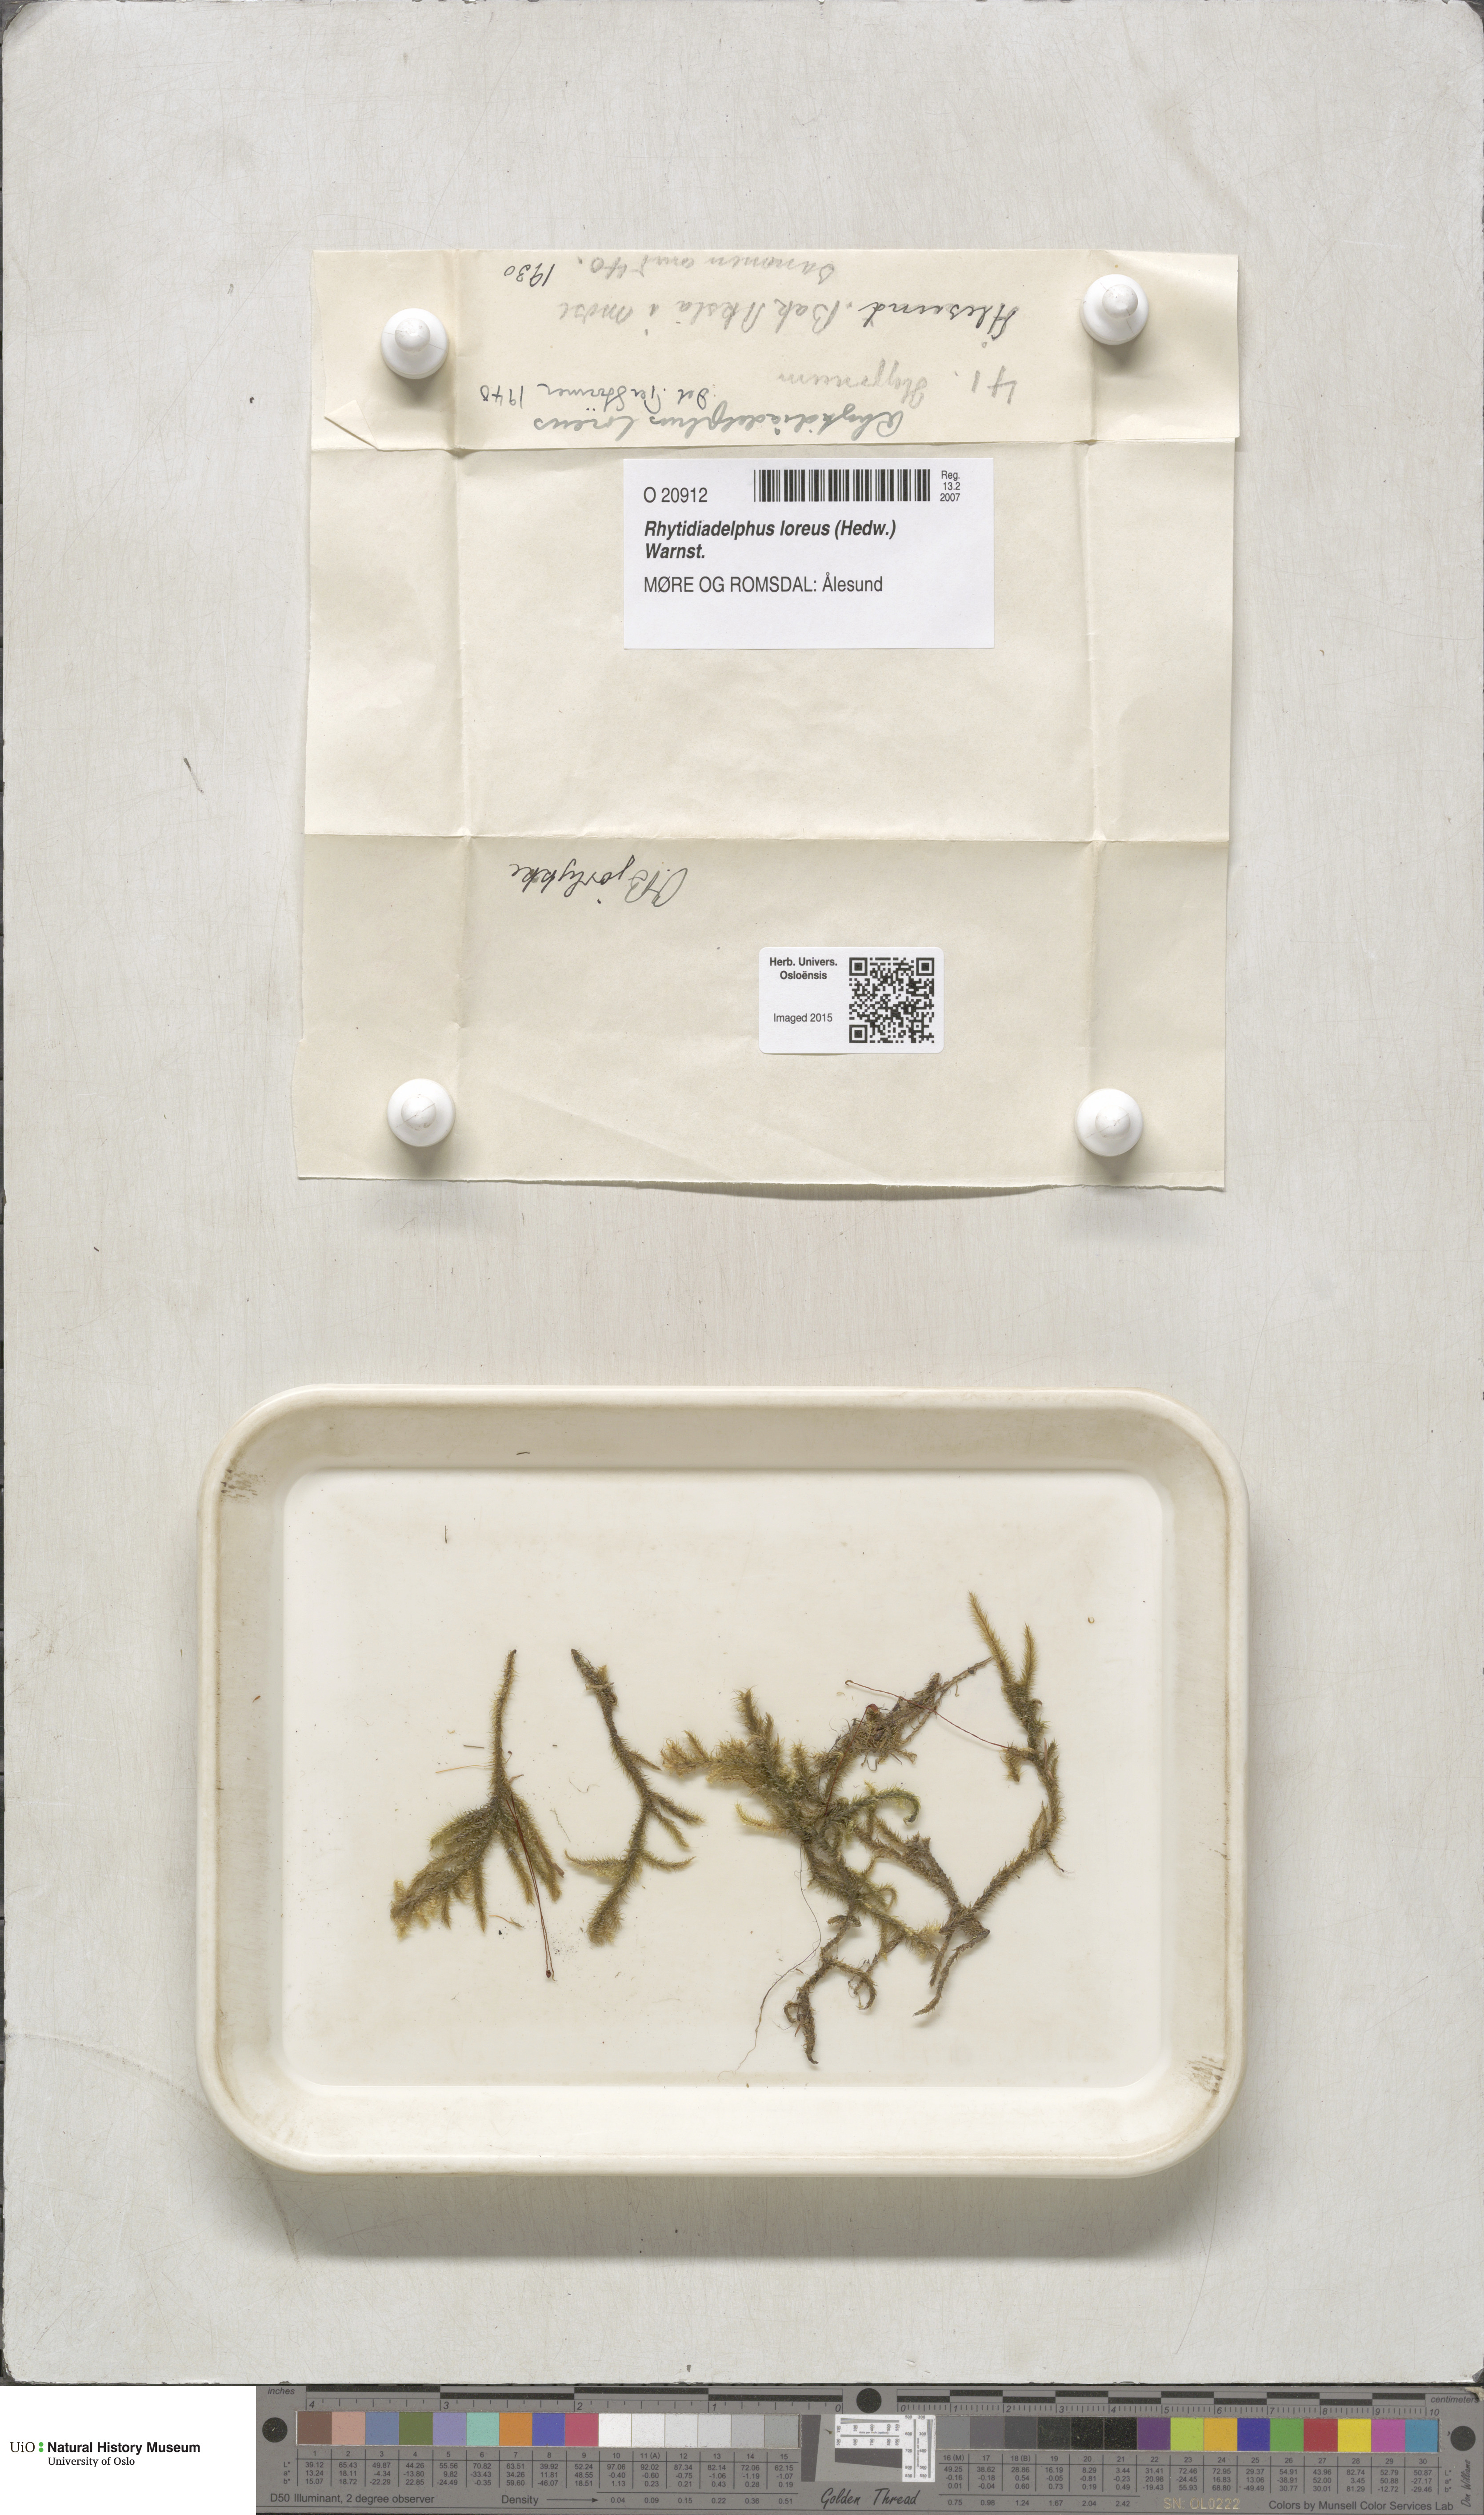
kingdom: Plantae
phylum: Bryophyta
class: Bryopsida
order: Hypnales
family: Hylocomiaceae
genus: Rhytidiadelphus
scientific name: Rhytidiadelphus loreus
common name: Lanky moss
